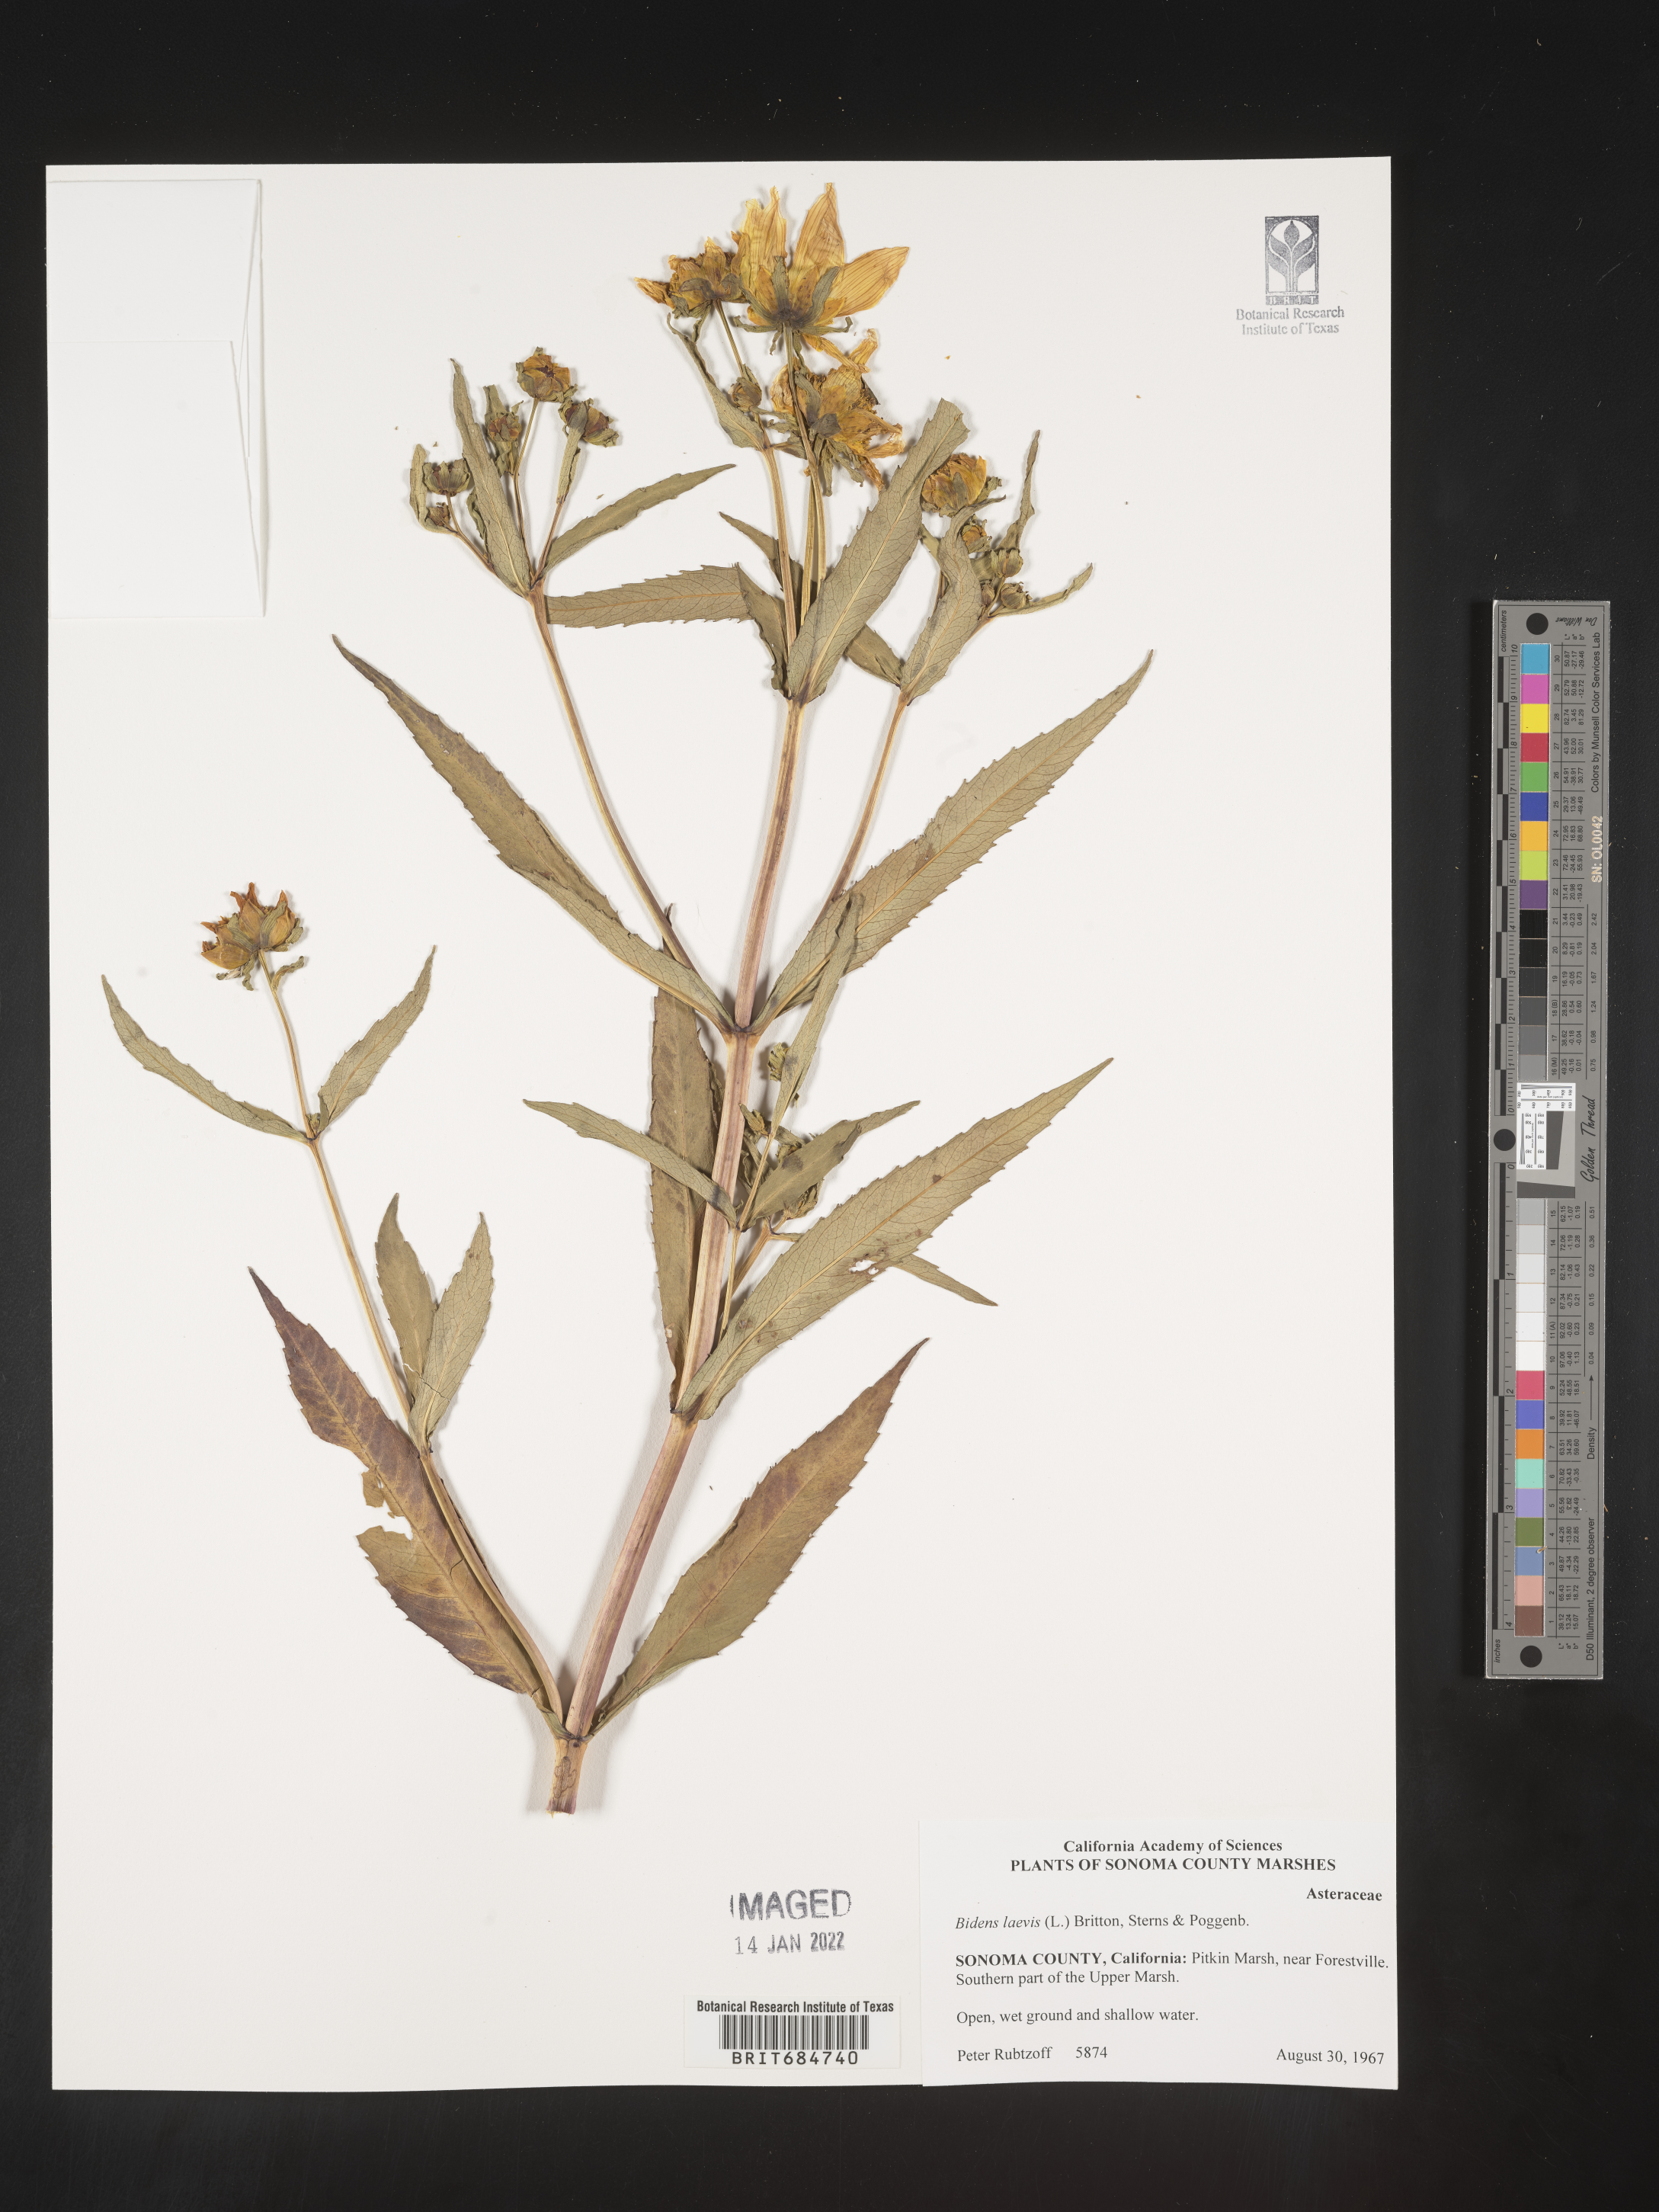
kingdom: Plantae
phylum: Tracheophyta
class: Magnoliopsida
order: Asterales
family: Asteraceae
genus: Bidens
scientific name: Bidens laevis
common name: Larger bur-marigold
